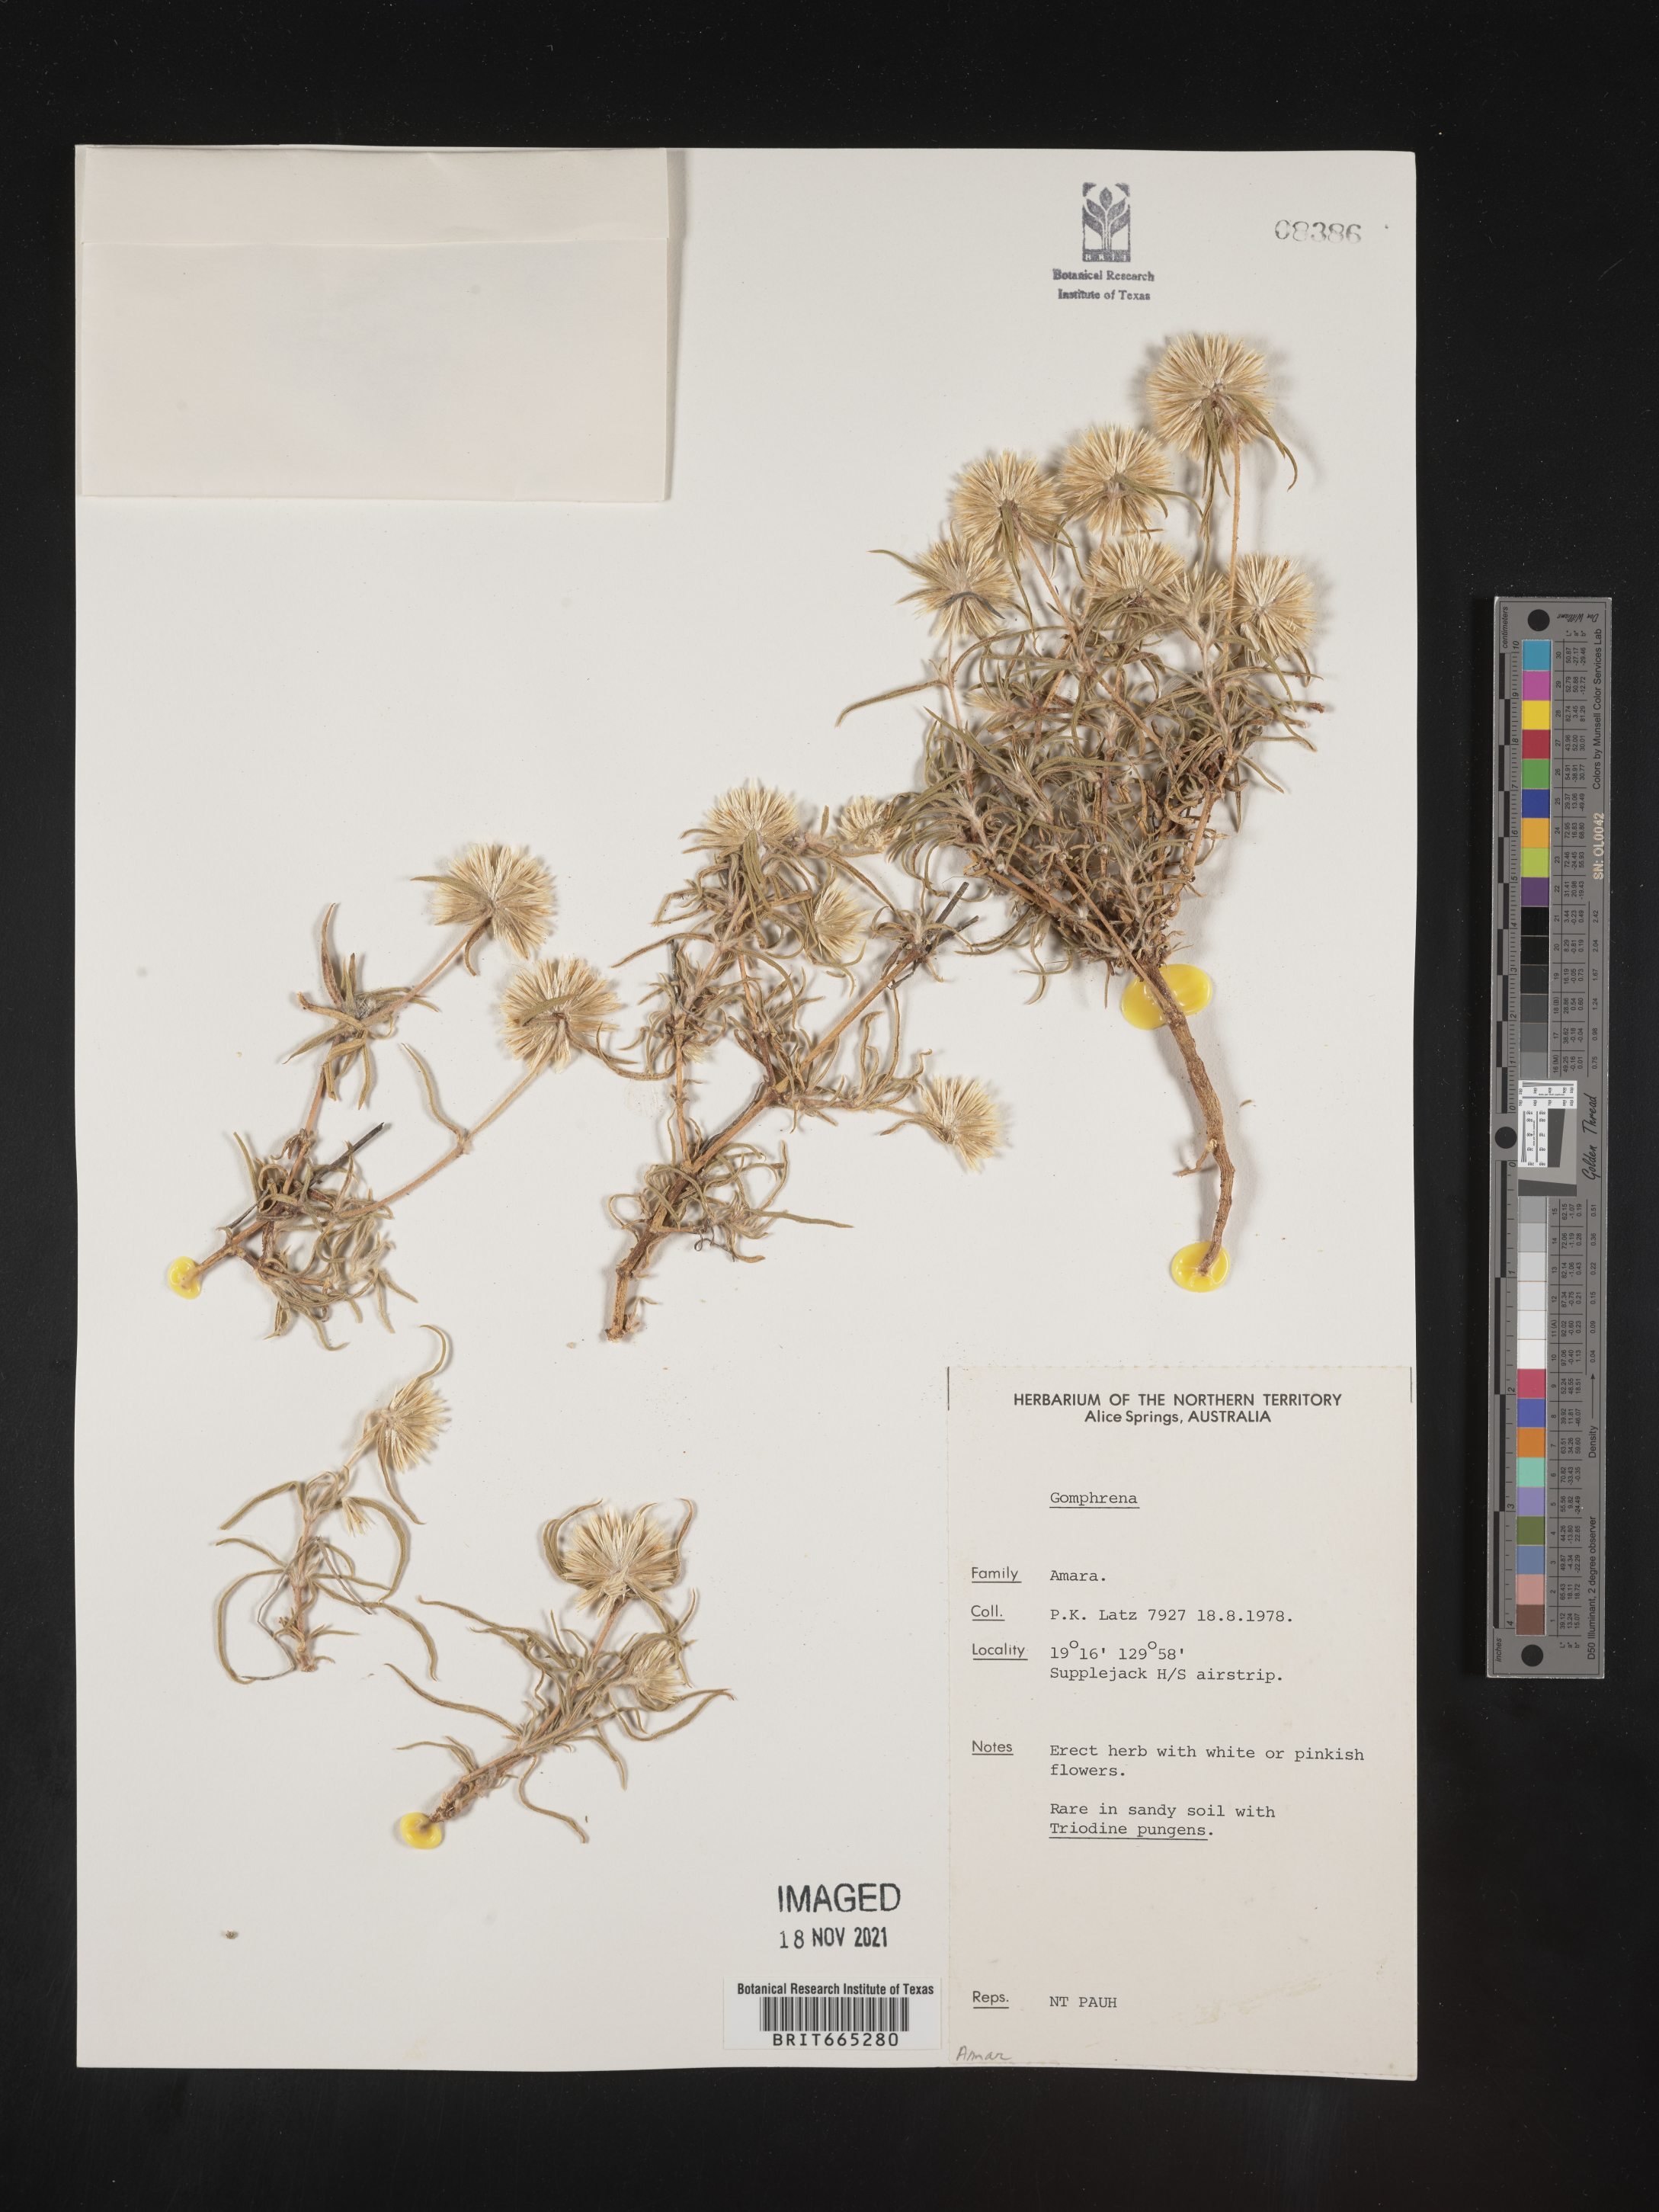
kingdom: Plantae
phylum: Tracheophyta
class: Magnoliopsida
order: Caryophyllales
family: Amaranthaceae
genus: Gomphrena
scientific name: Gomphrena
